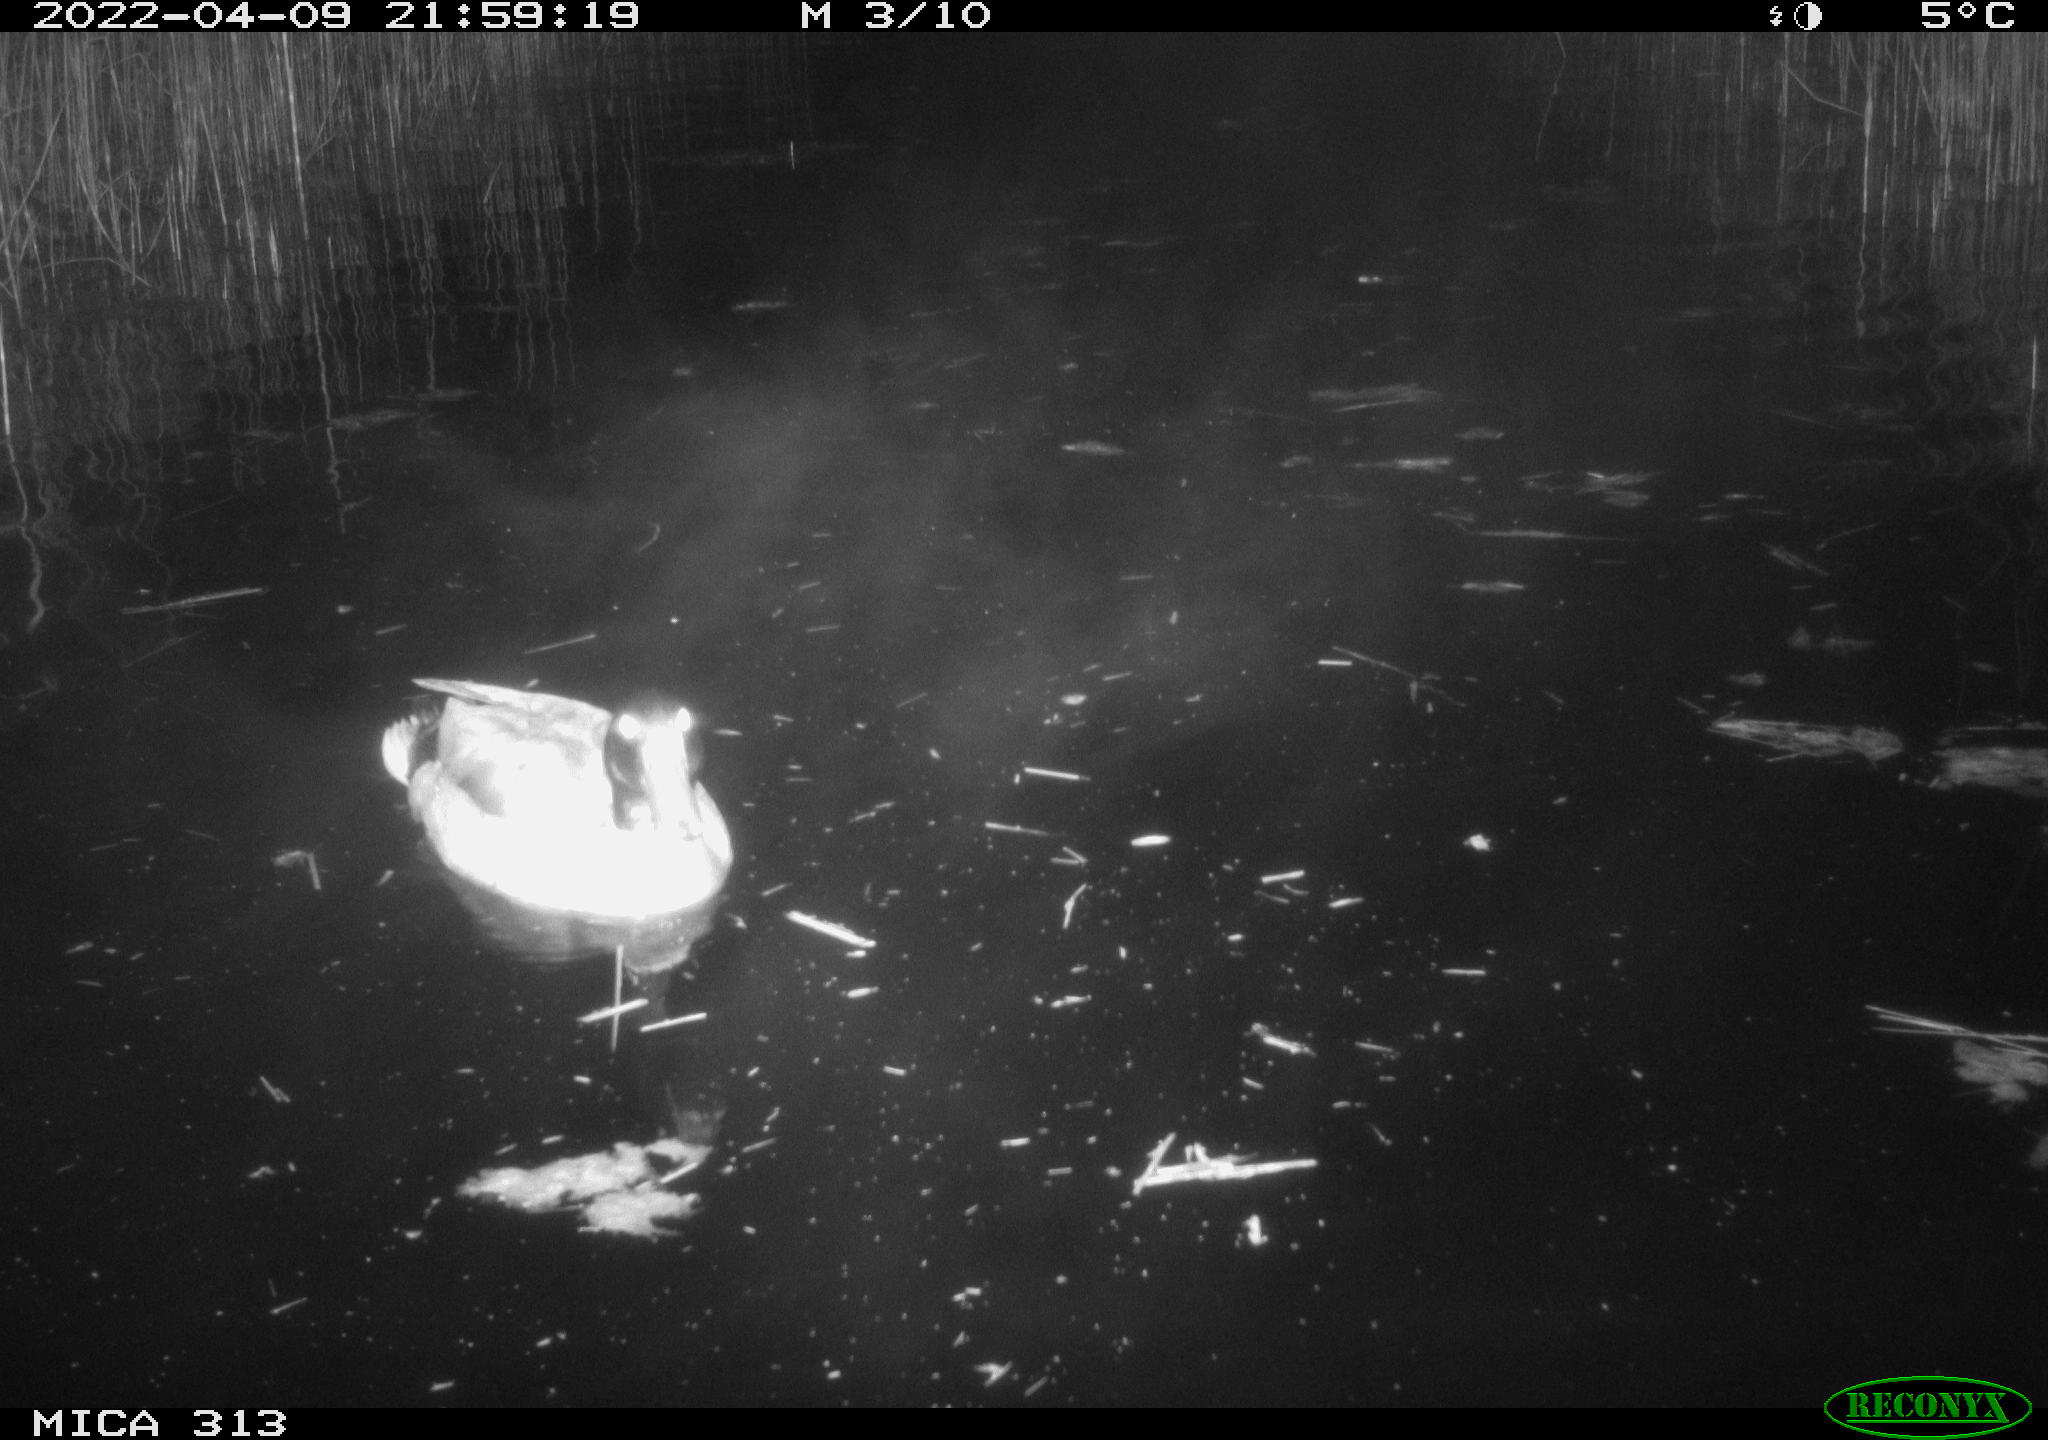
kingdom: Animalia
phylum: Chordata
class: Aves
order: Anseriformes
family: Anatidae
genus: Anas
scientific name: Anas platyrhynchos
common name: Mallard
